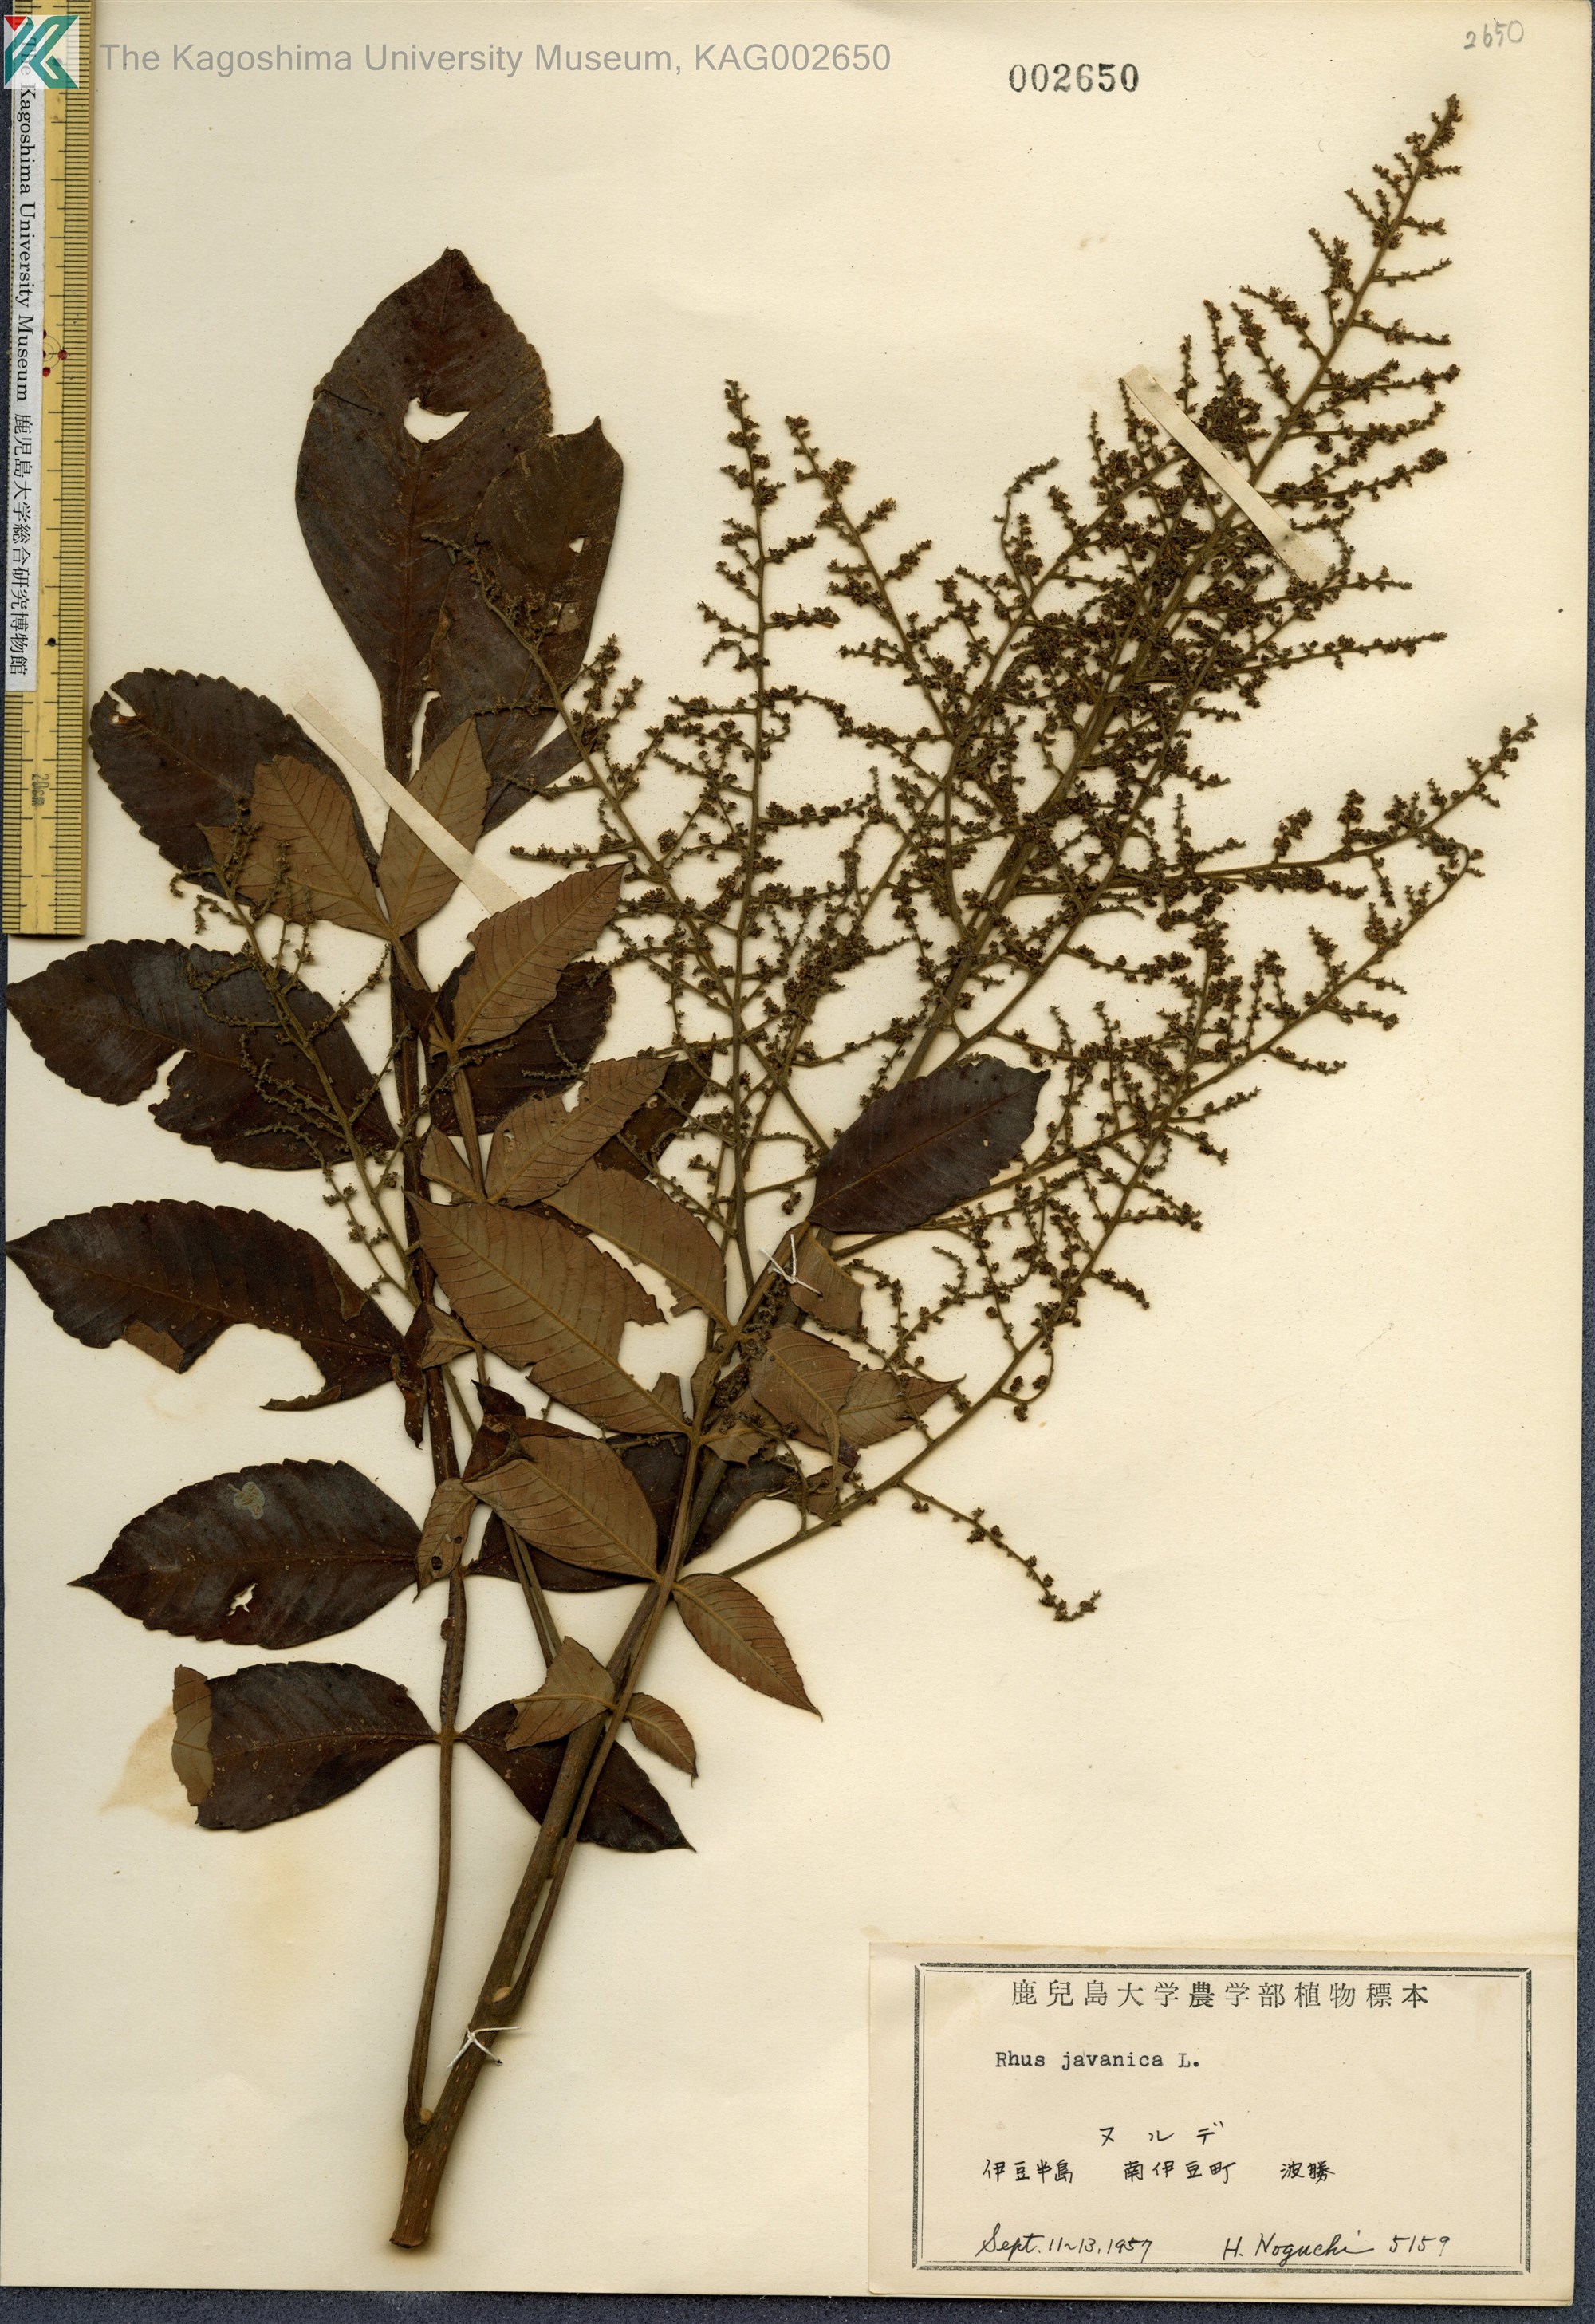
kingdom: Plantae
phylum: Tracheophyta
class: Magnoliopsida
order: Sapindales
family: Simaroubaceae
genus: Brucea
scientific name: Brucea javanica
